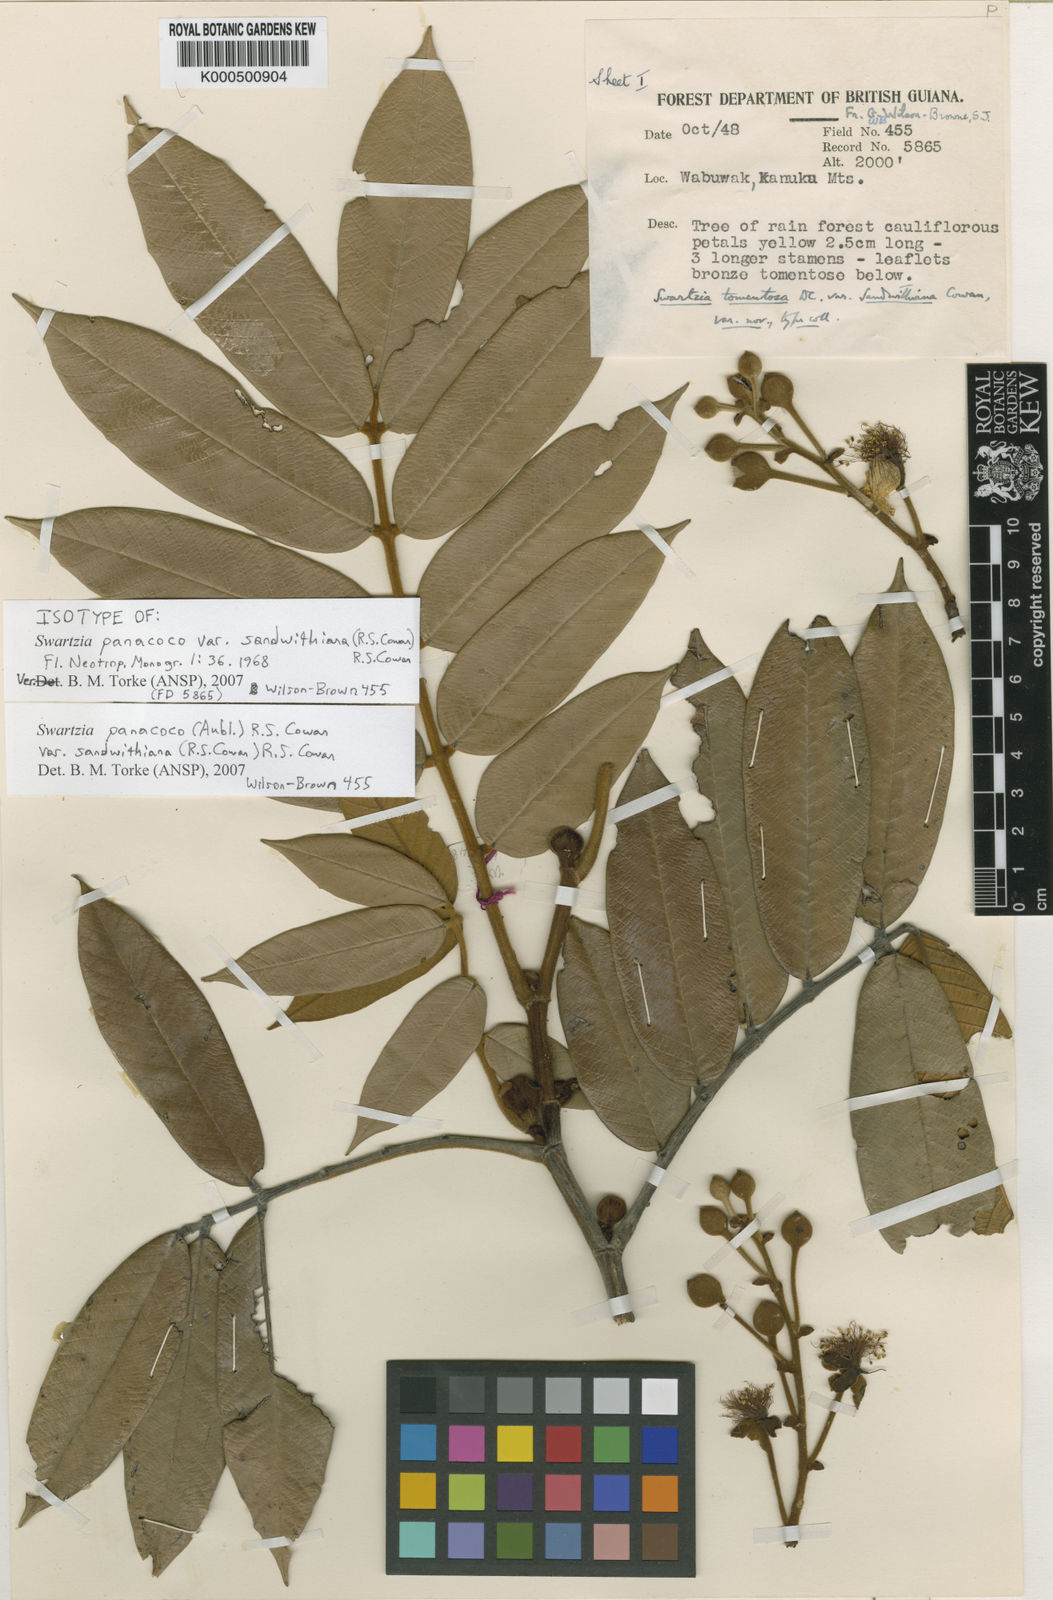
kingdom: Plantae
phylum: Tracheophyta
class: Magnoliopsida
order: Fabales
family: Fabaceae
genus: Swartzia
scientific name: Swartzia panacoco
